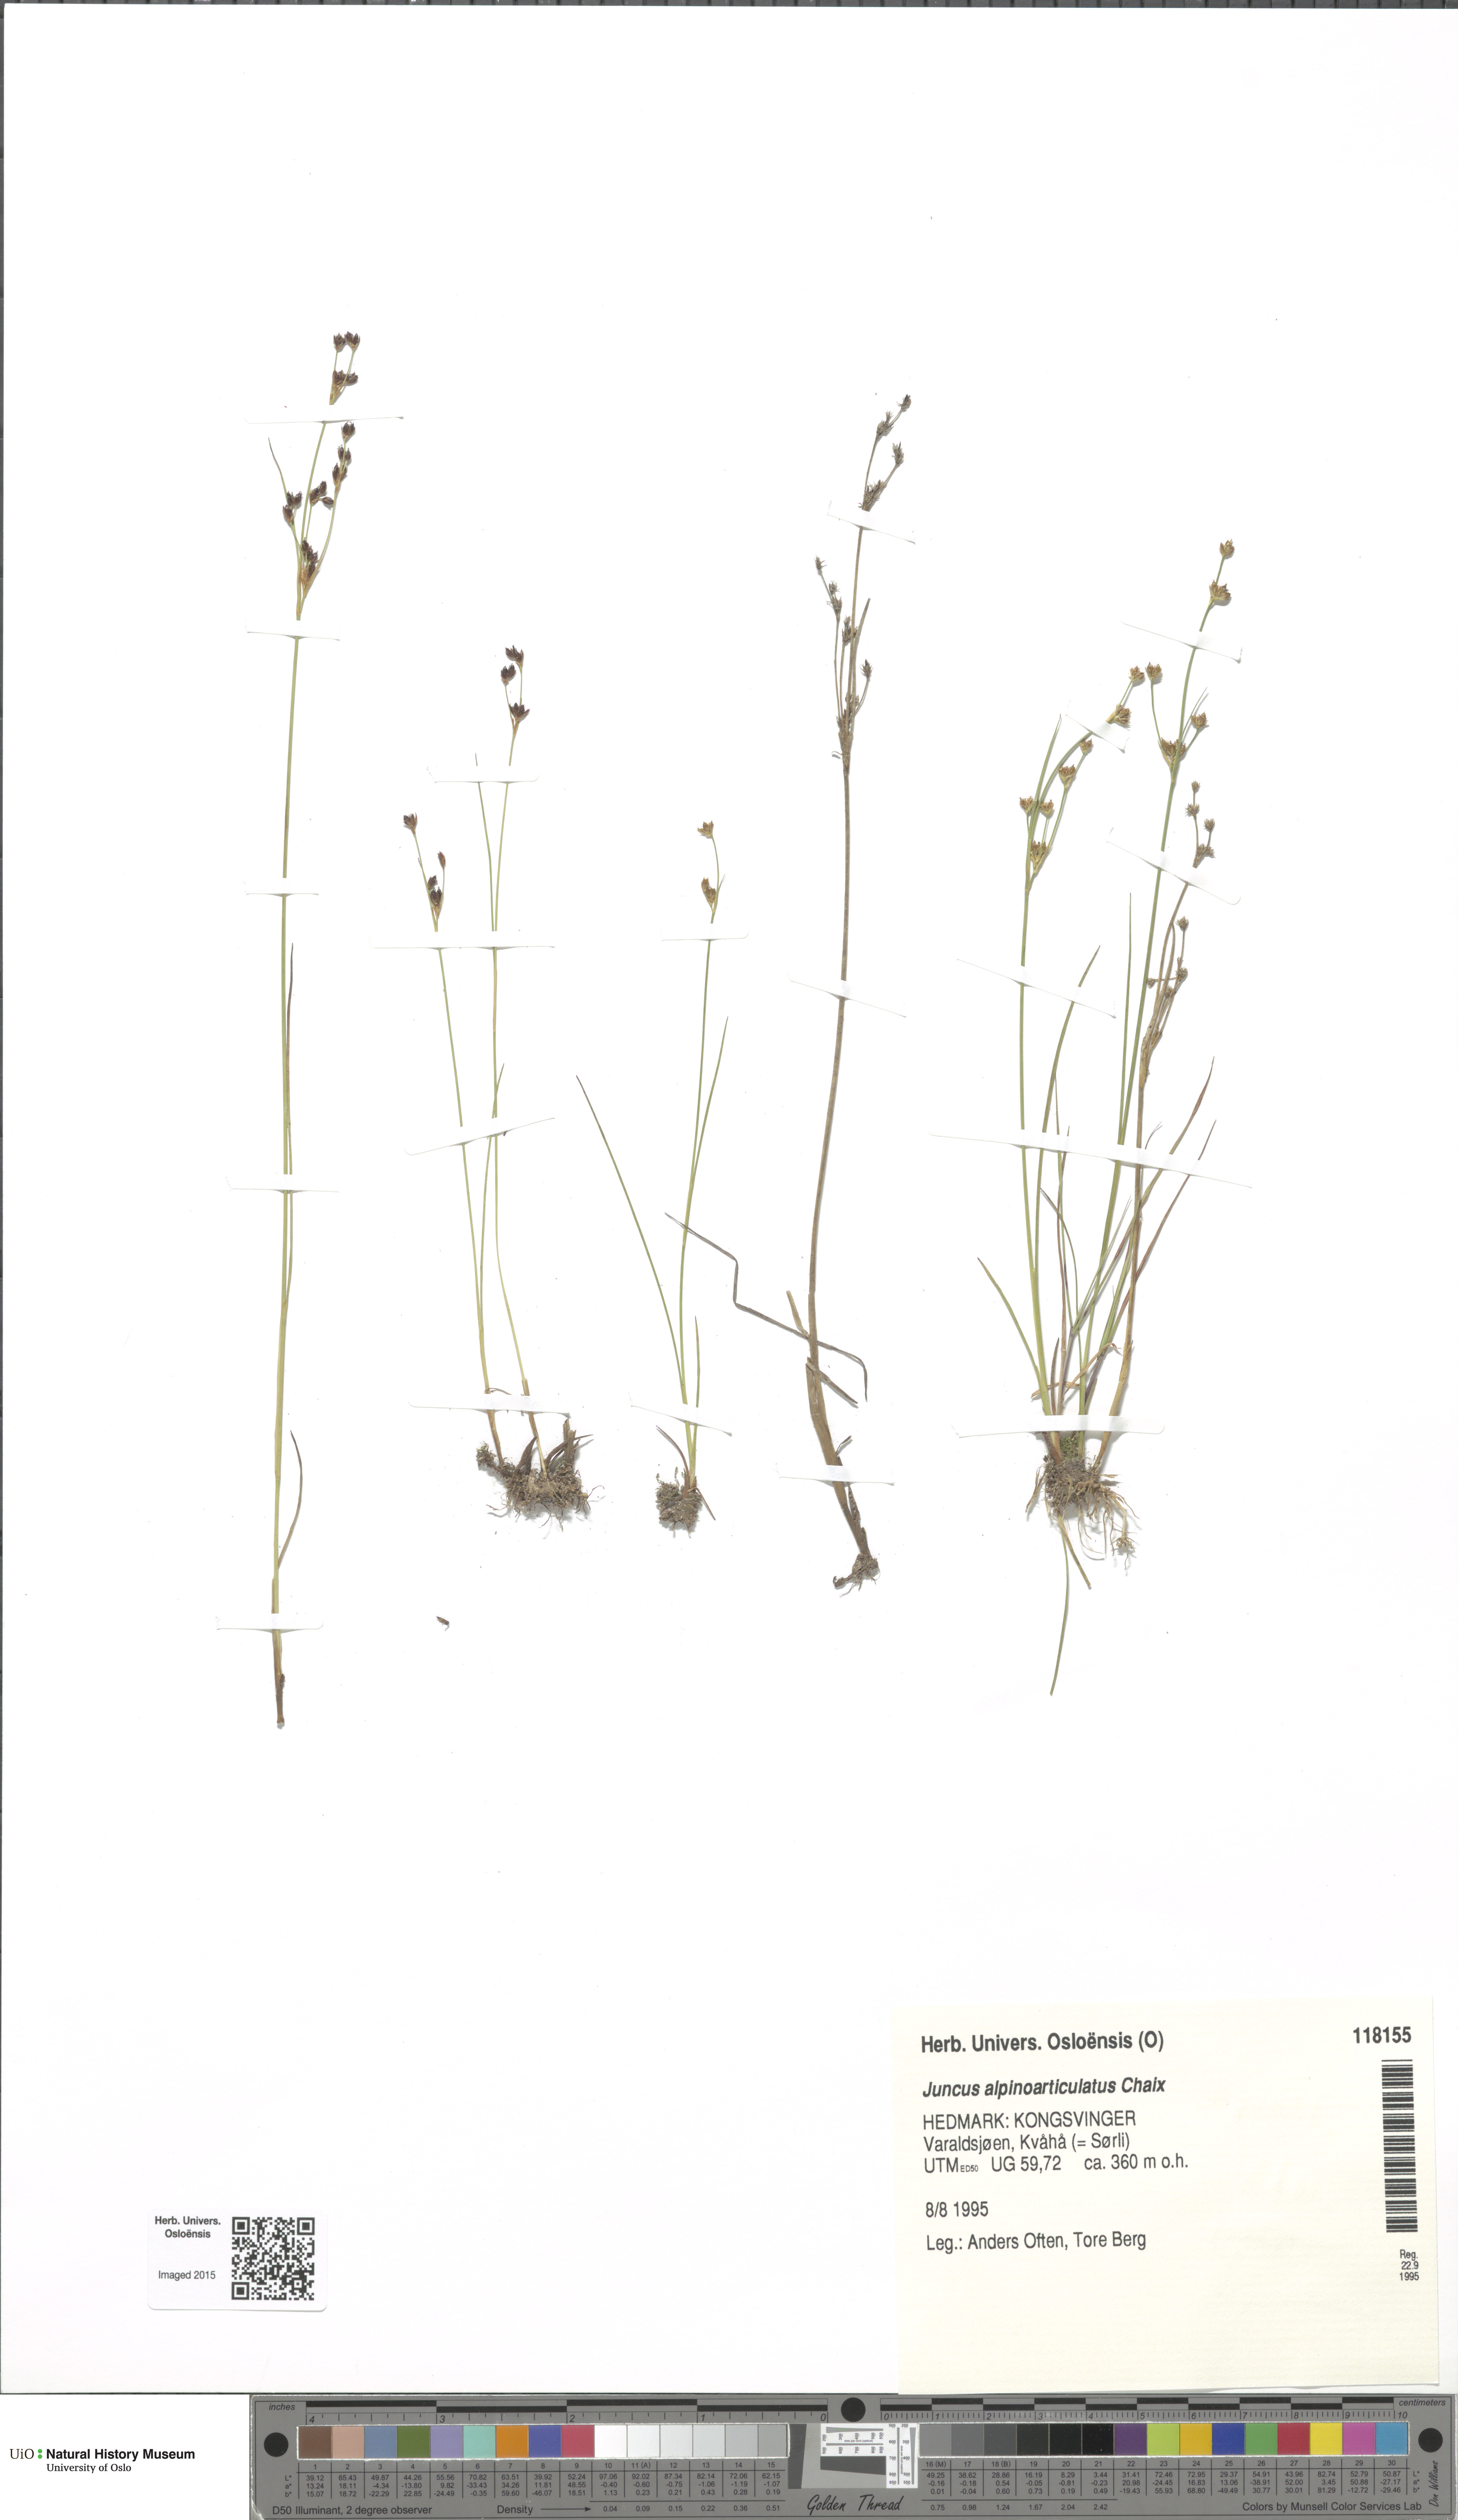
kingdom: Plantae
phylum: Tracheophyta
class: Liliopsida
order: Poales
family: Juncaceae
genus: Juncus
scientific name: Juncus alpinoarticulatus
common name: Alpine rush
